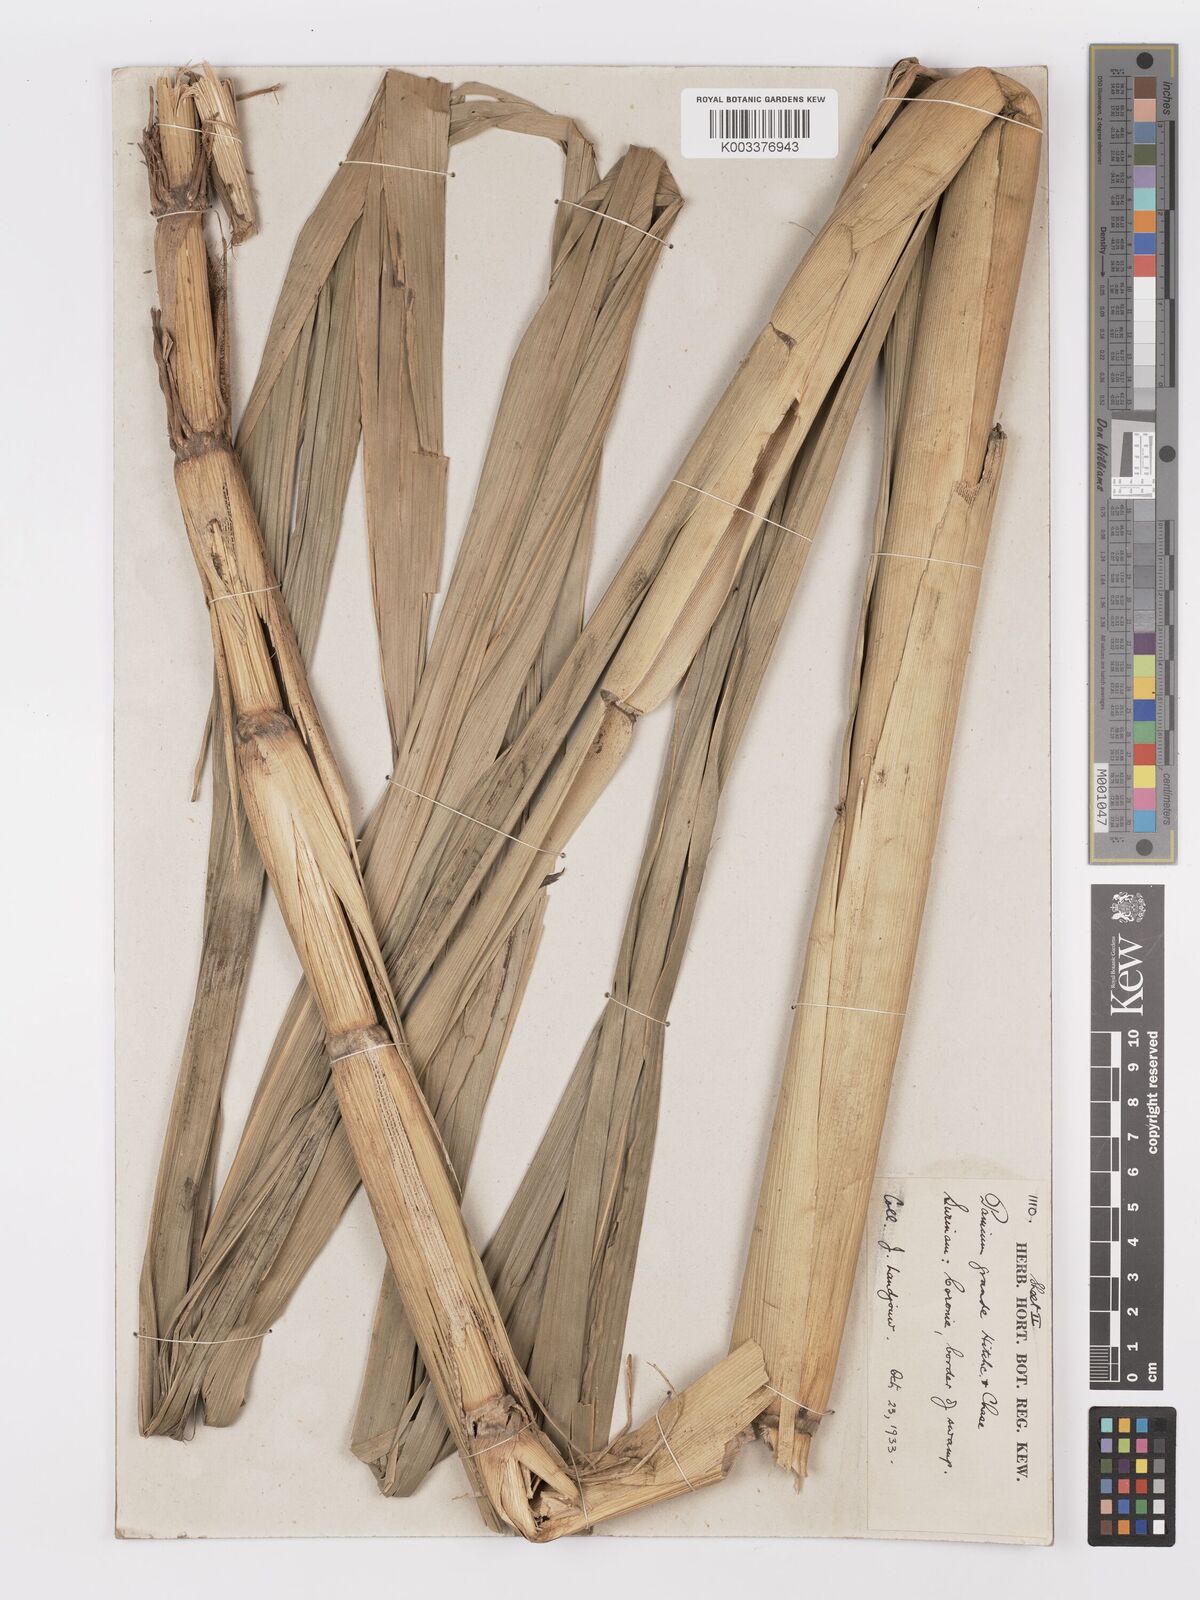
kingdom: Plantae
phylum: Tracheophyta
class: Liliopsida
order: Poales
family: Poaceae
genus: Panicum
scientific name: Panicum subalbidum
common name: Elbow buffalo grass
